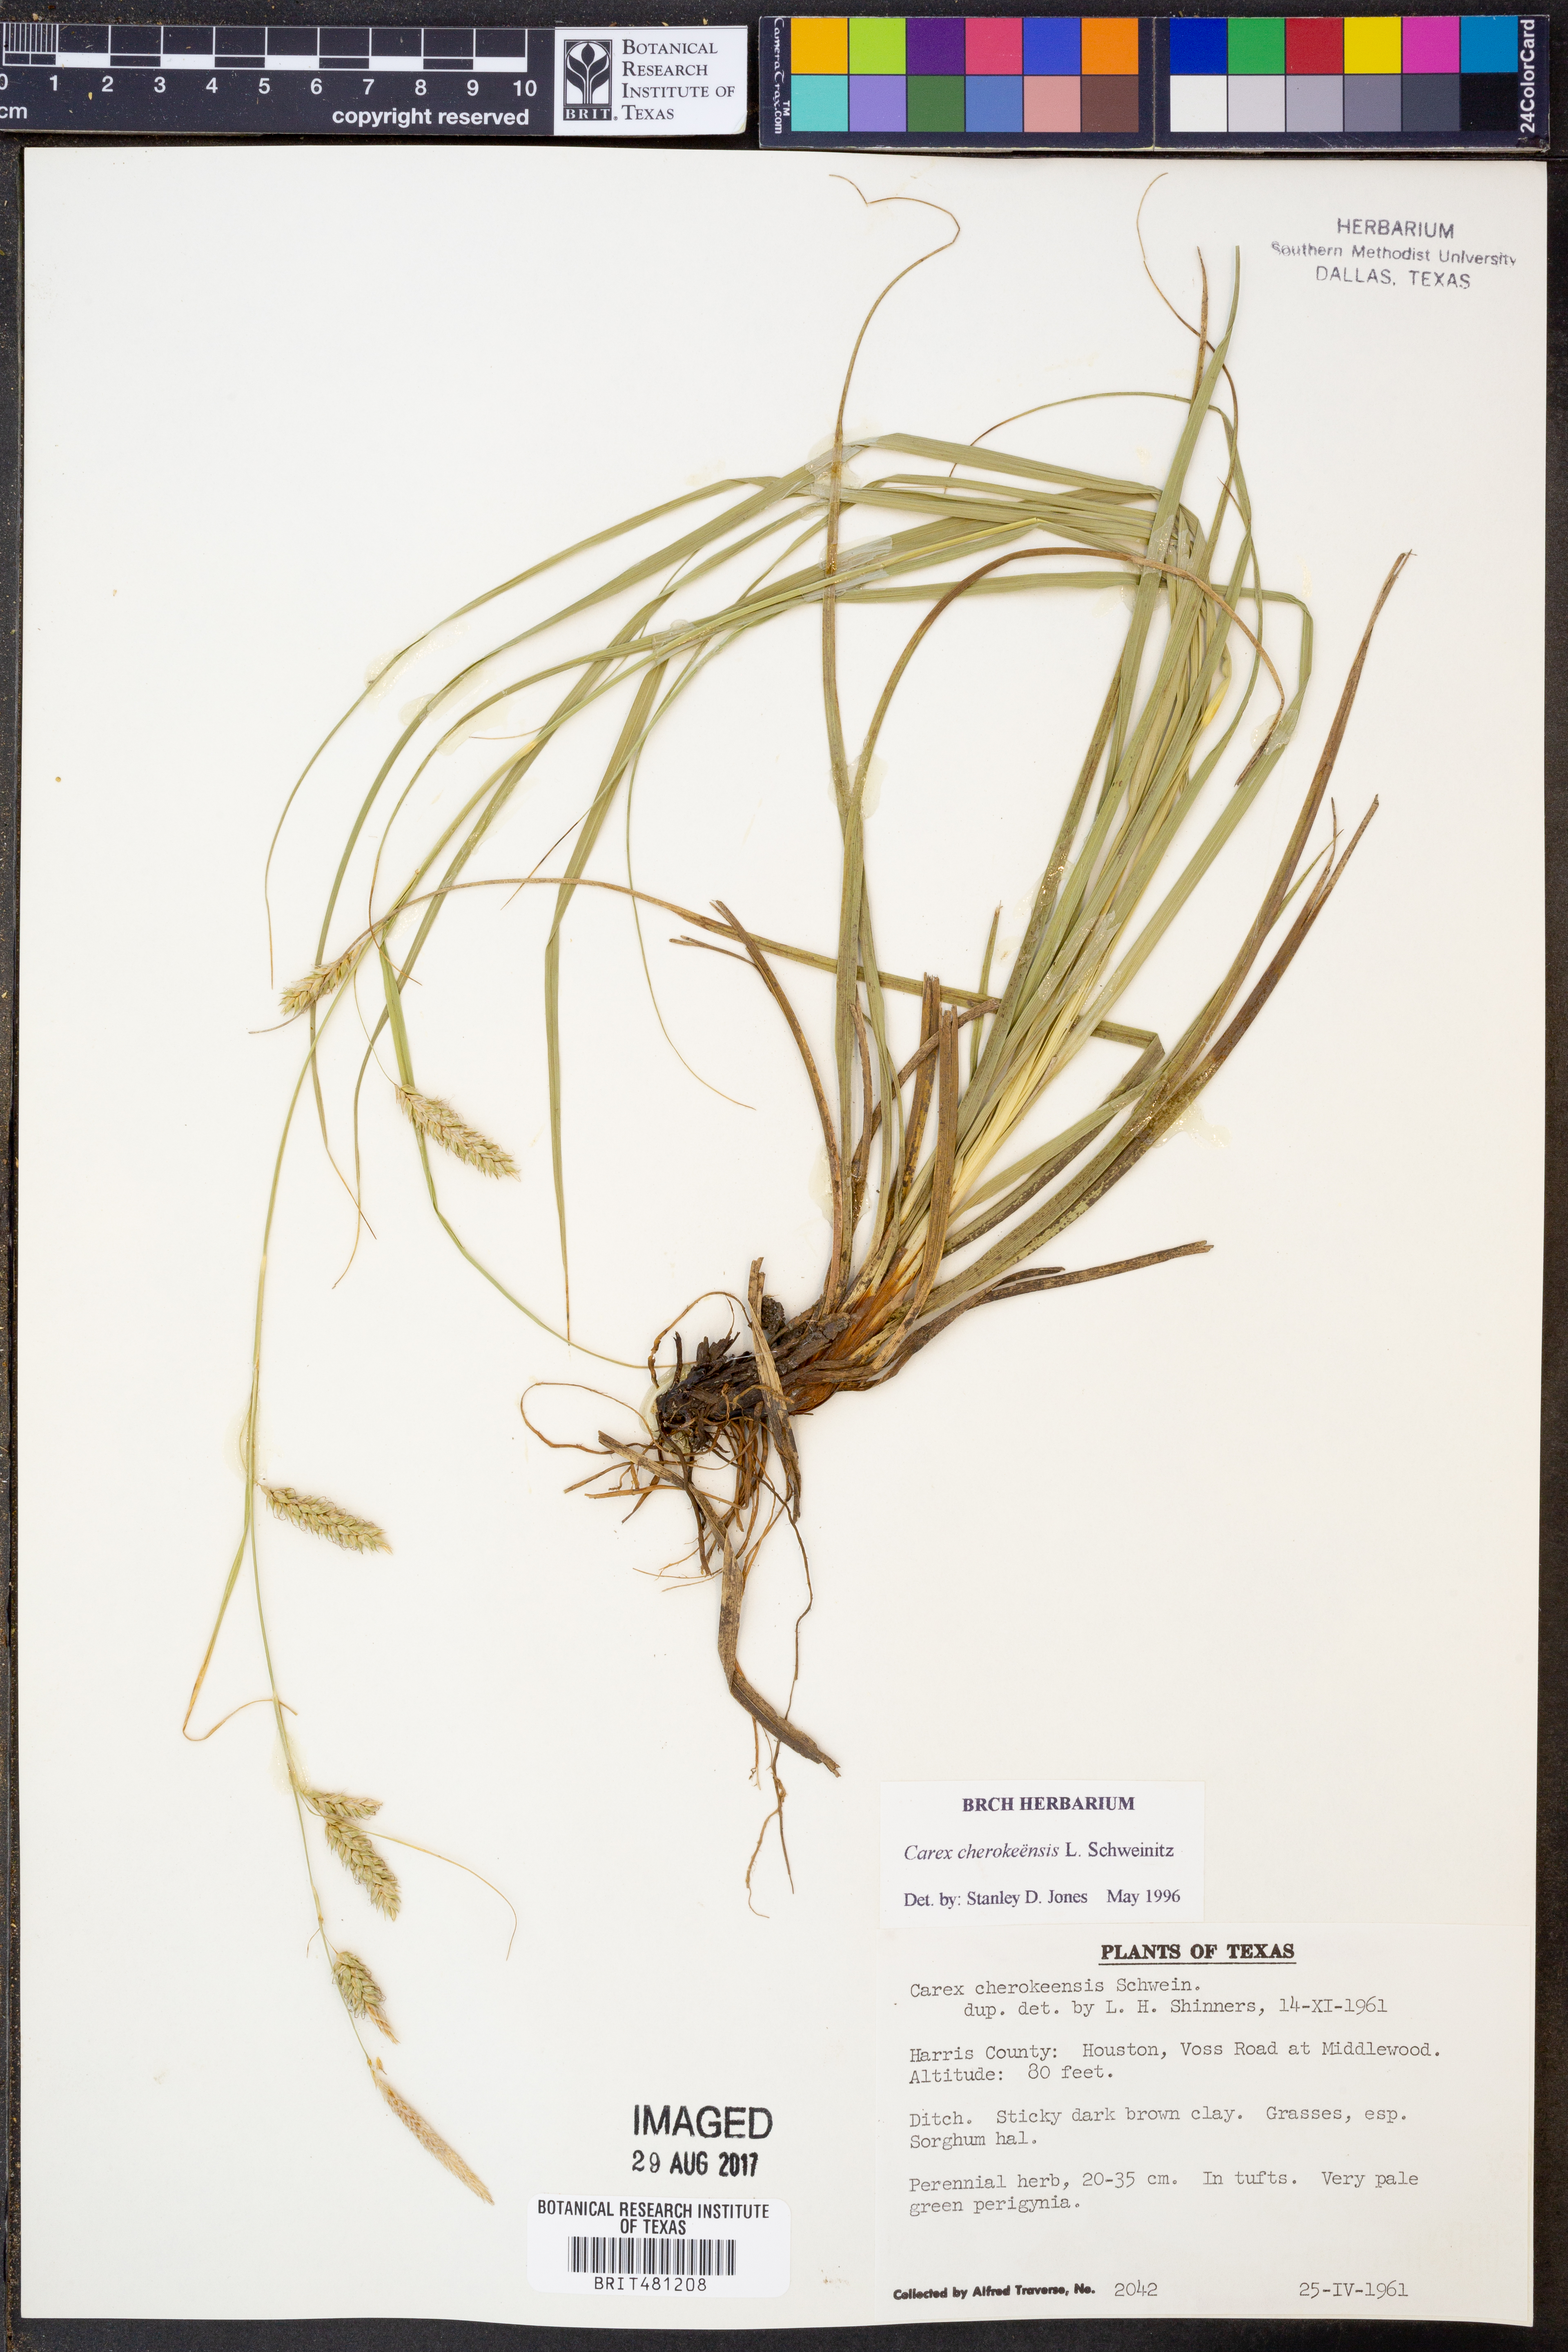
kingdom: Plantae
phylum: Tracheophyta
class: Liliopsida
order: Poales
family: Cyperaceae
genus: Carex
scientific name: Carex cherokeensis
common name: Cherokee sedge
